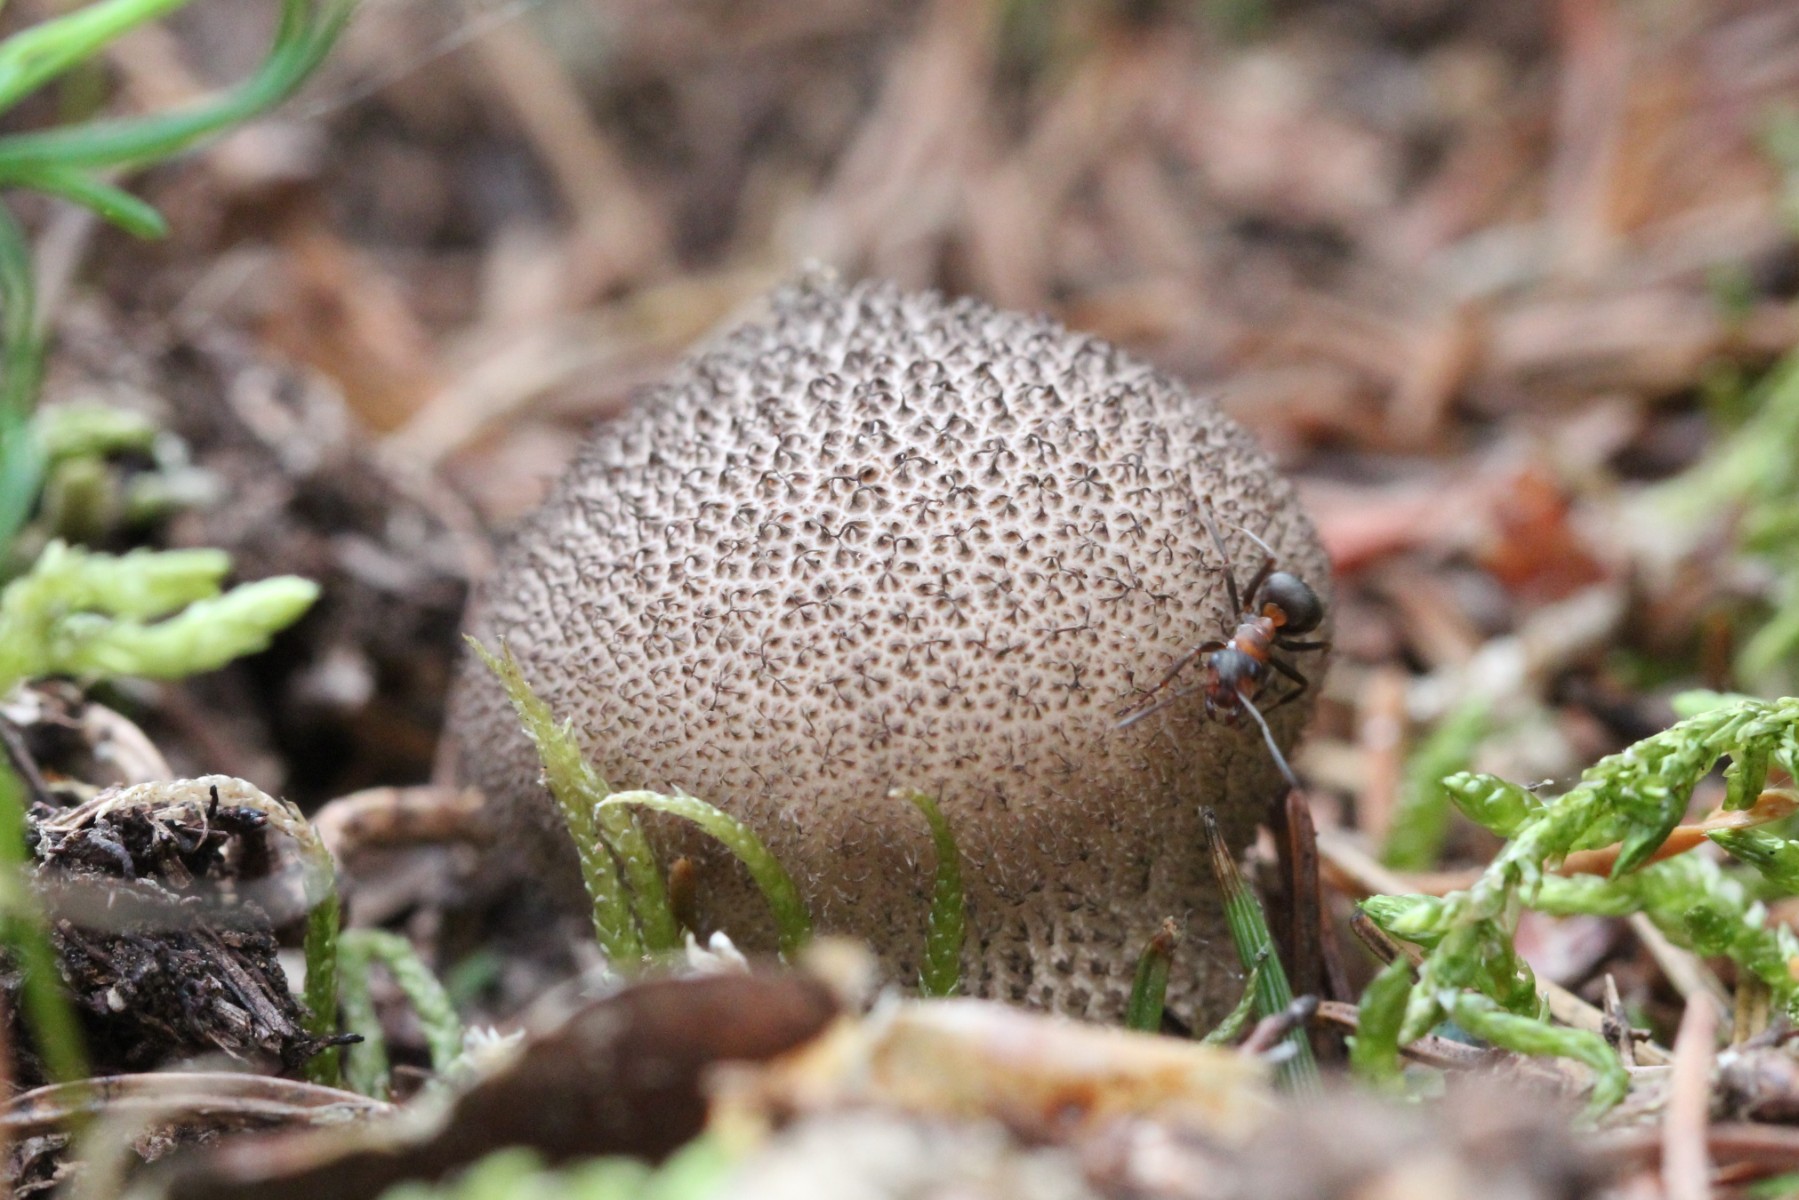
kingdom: Fungi
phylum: Basidiomycota
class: Agaricomycetes
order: Agaricales
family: Lycoperdaceae
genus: Lycoperdon
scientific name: Lycoperdon nigrescens
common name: sortagtig støvbold
